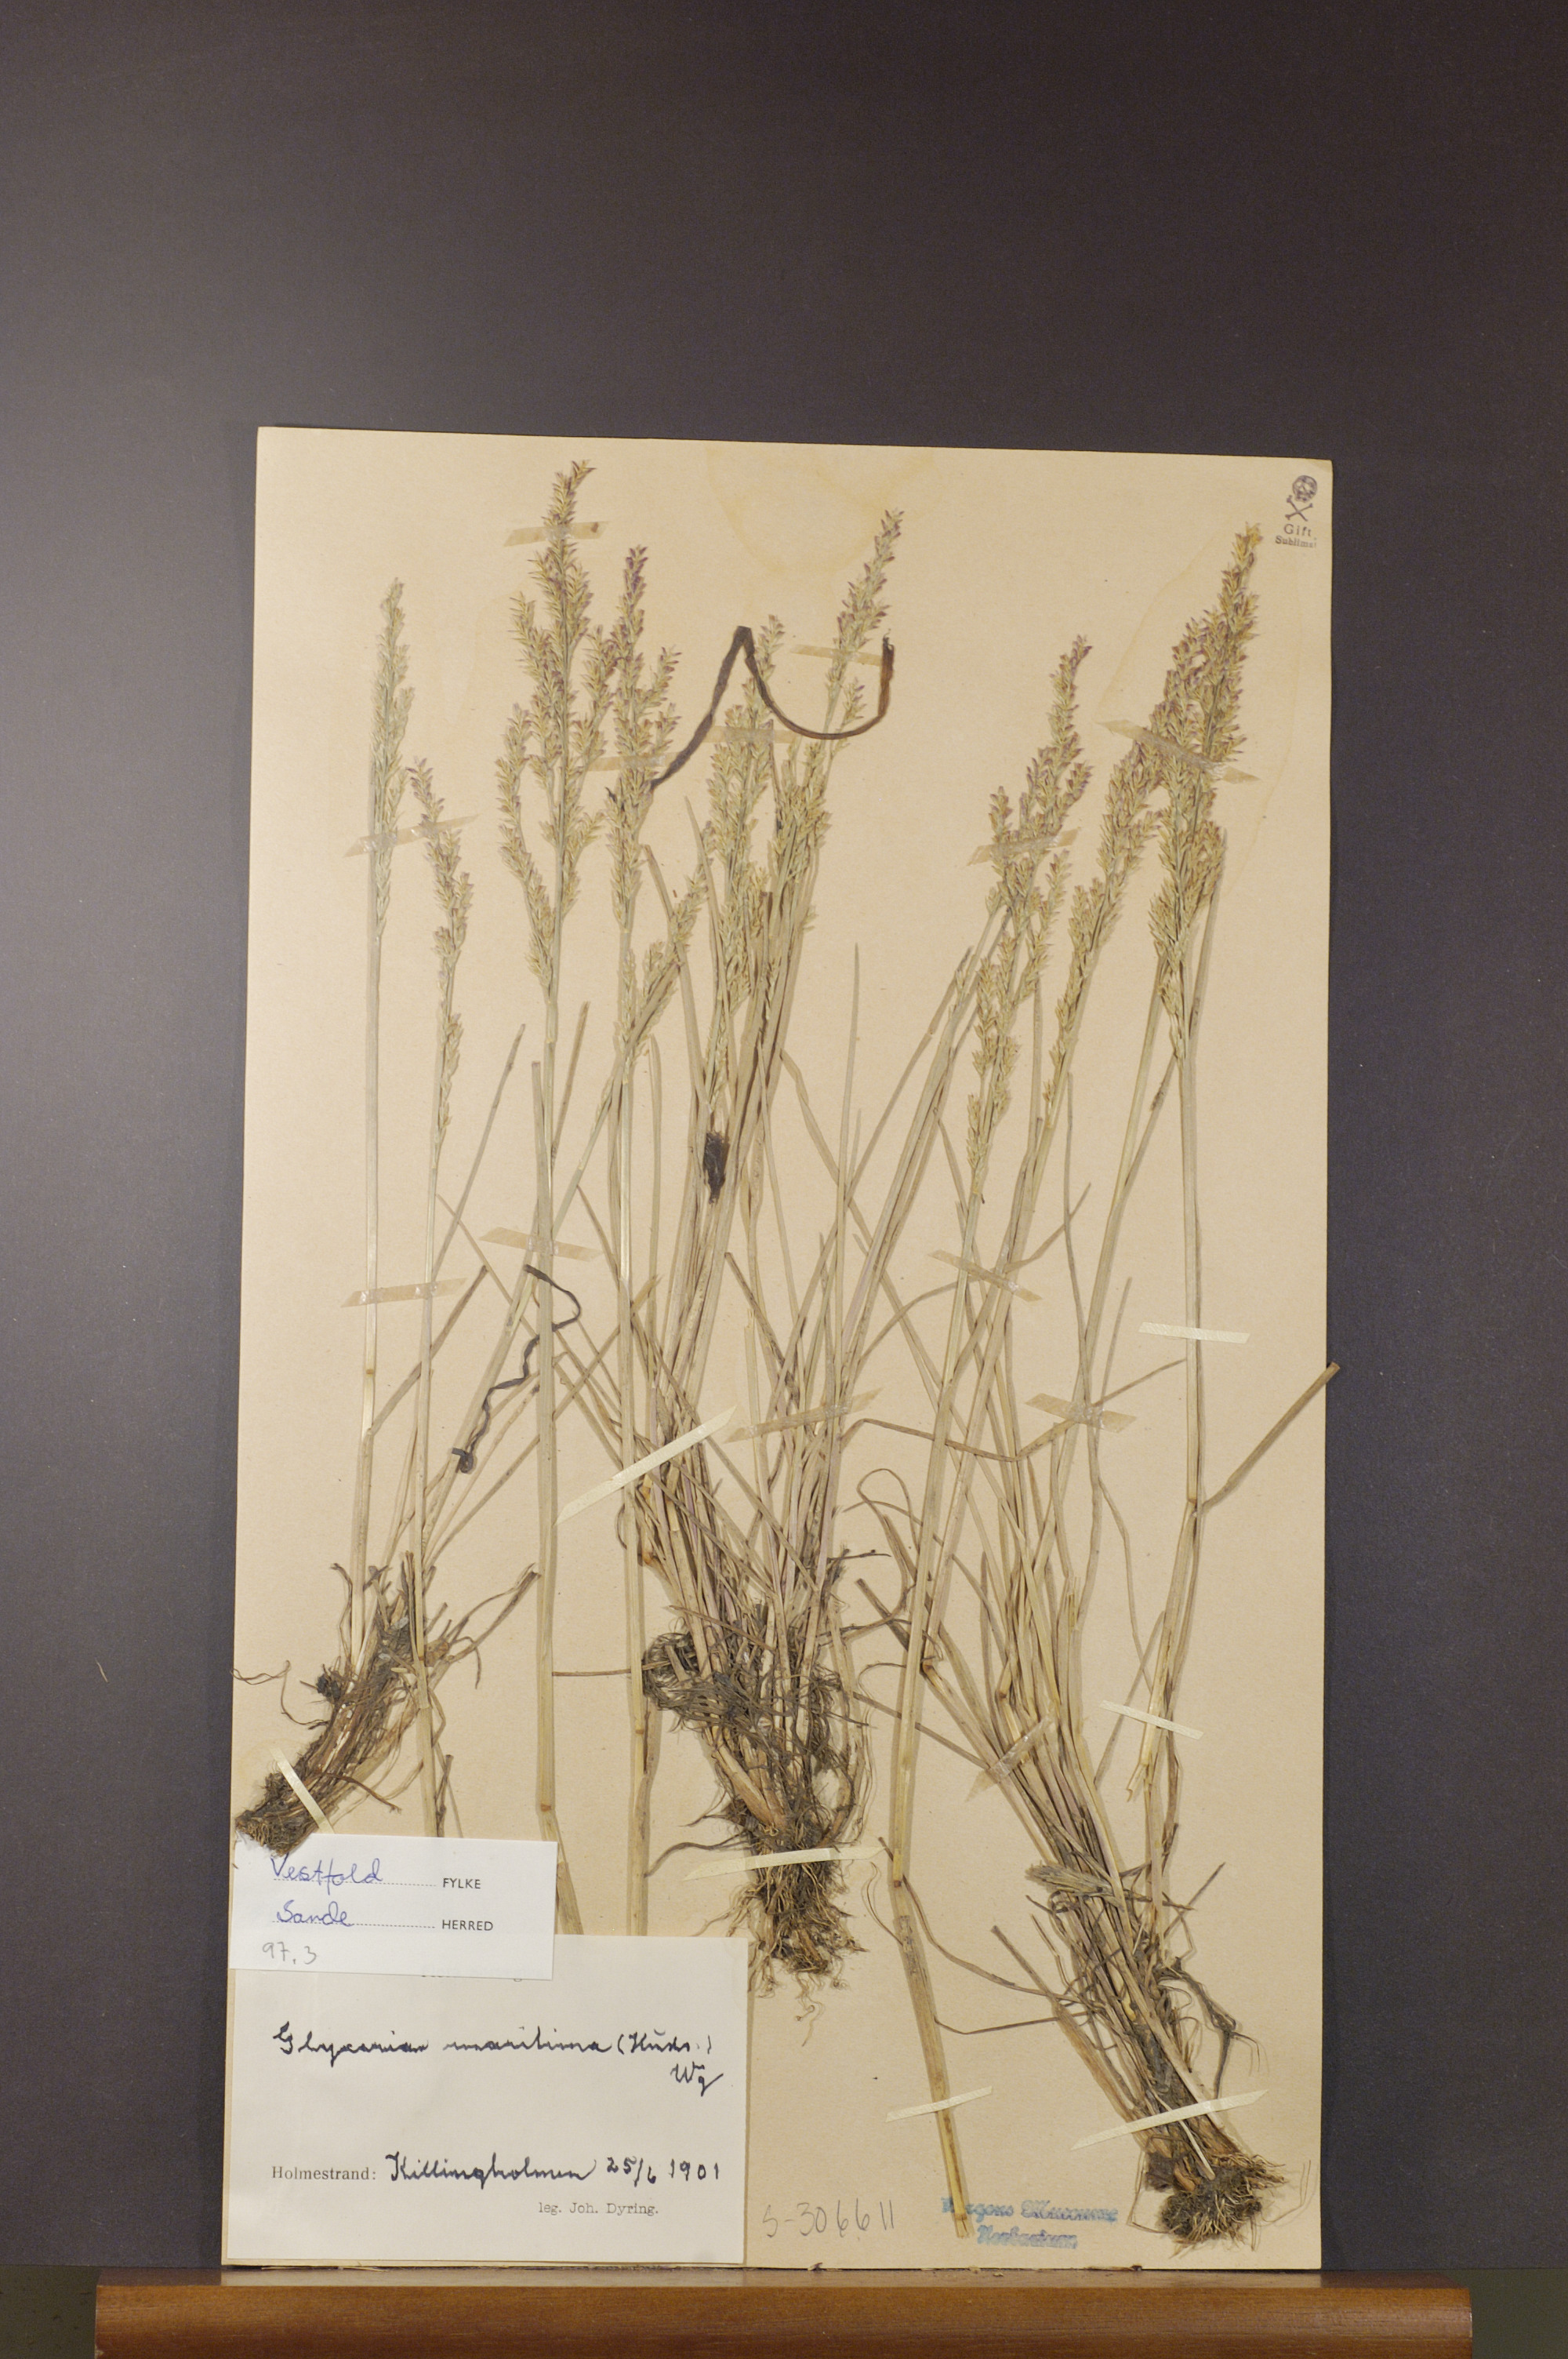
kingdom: Plantae
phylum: Tracheophyta
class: Liliopsida
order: Poales
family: Poaceae
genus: Puccinellia
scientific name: Puccinellia maritima
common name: Common saltmarsh grass
